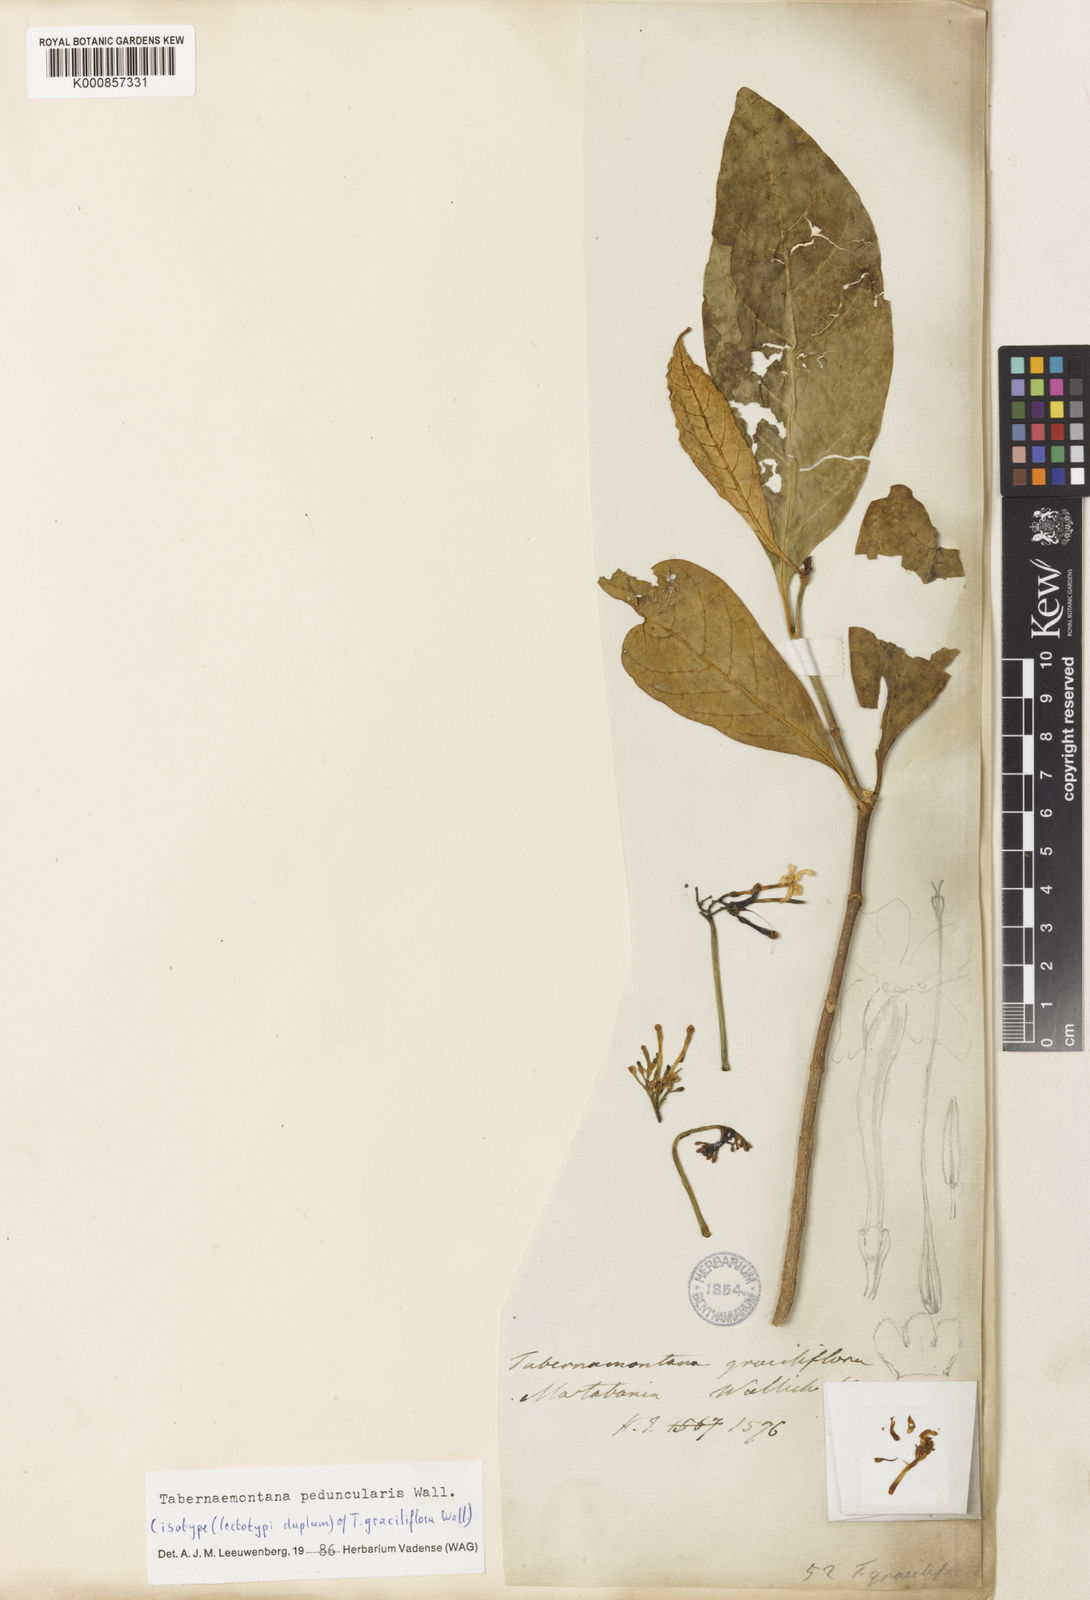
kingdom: Plantae
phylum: Tracheophyta
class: Magnoliopsida
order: Gentianales
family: Apocynaceae
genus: Tabernaemontana
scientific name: Tabernaemontana peduncularis
